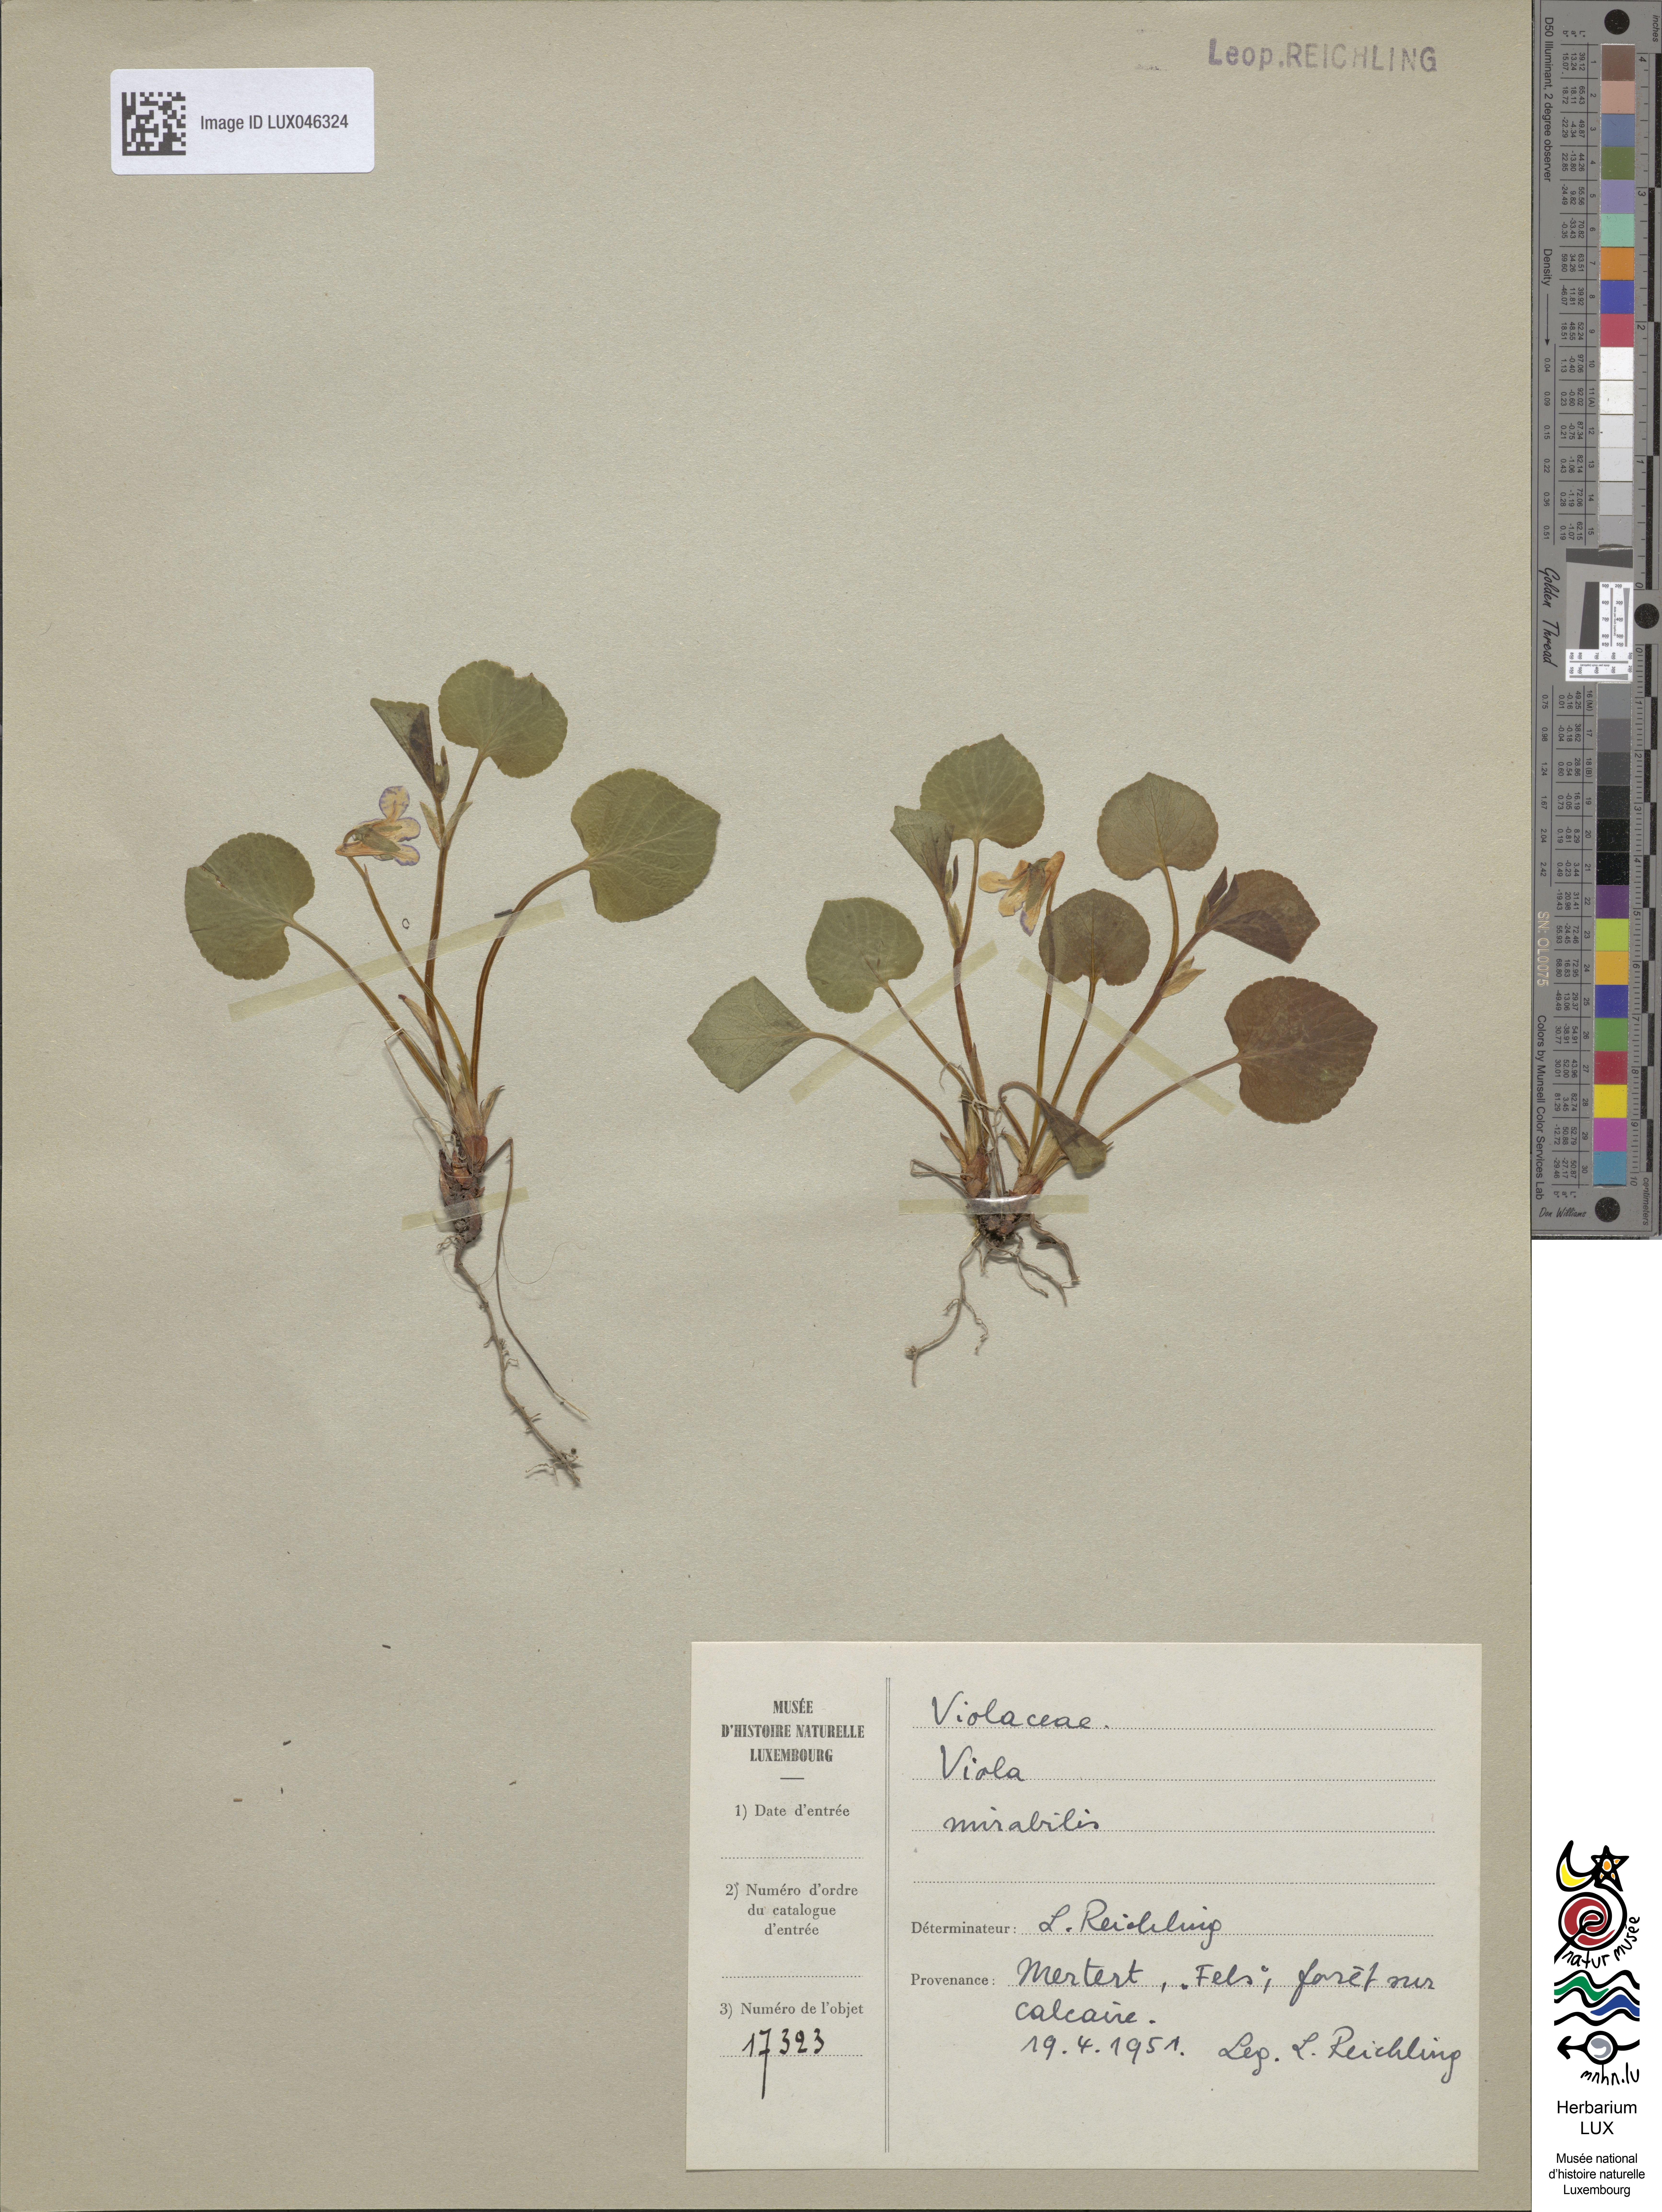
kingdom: Plantae
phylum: Tracheophyta
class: Magnoliopsida
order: Malpighiales
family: Violaceae
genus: Viola
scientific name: Viola mirabilis
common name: Wonder violet
